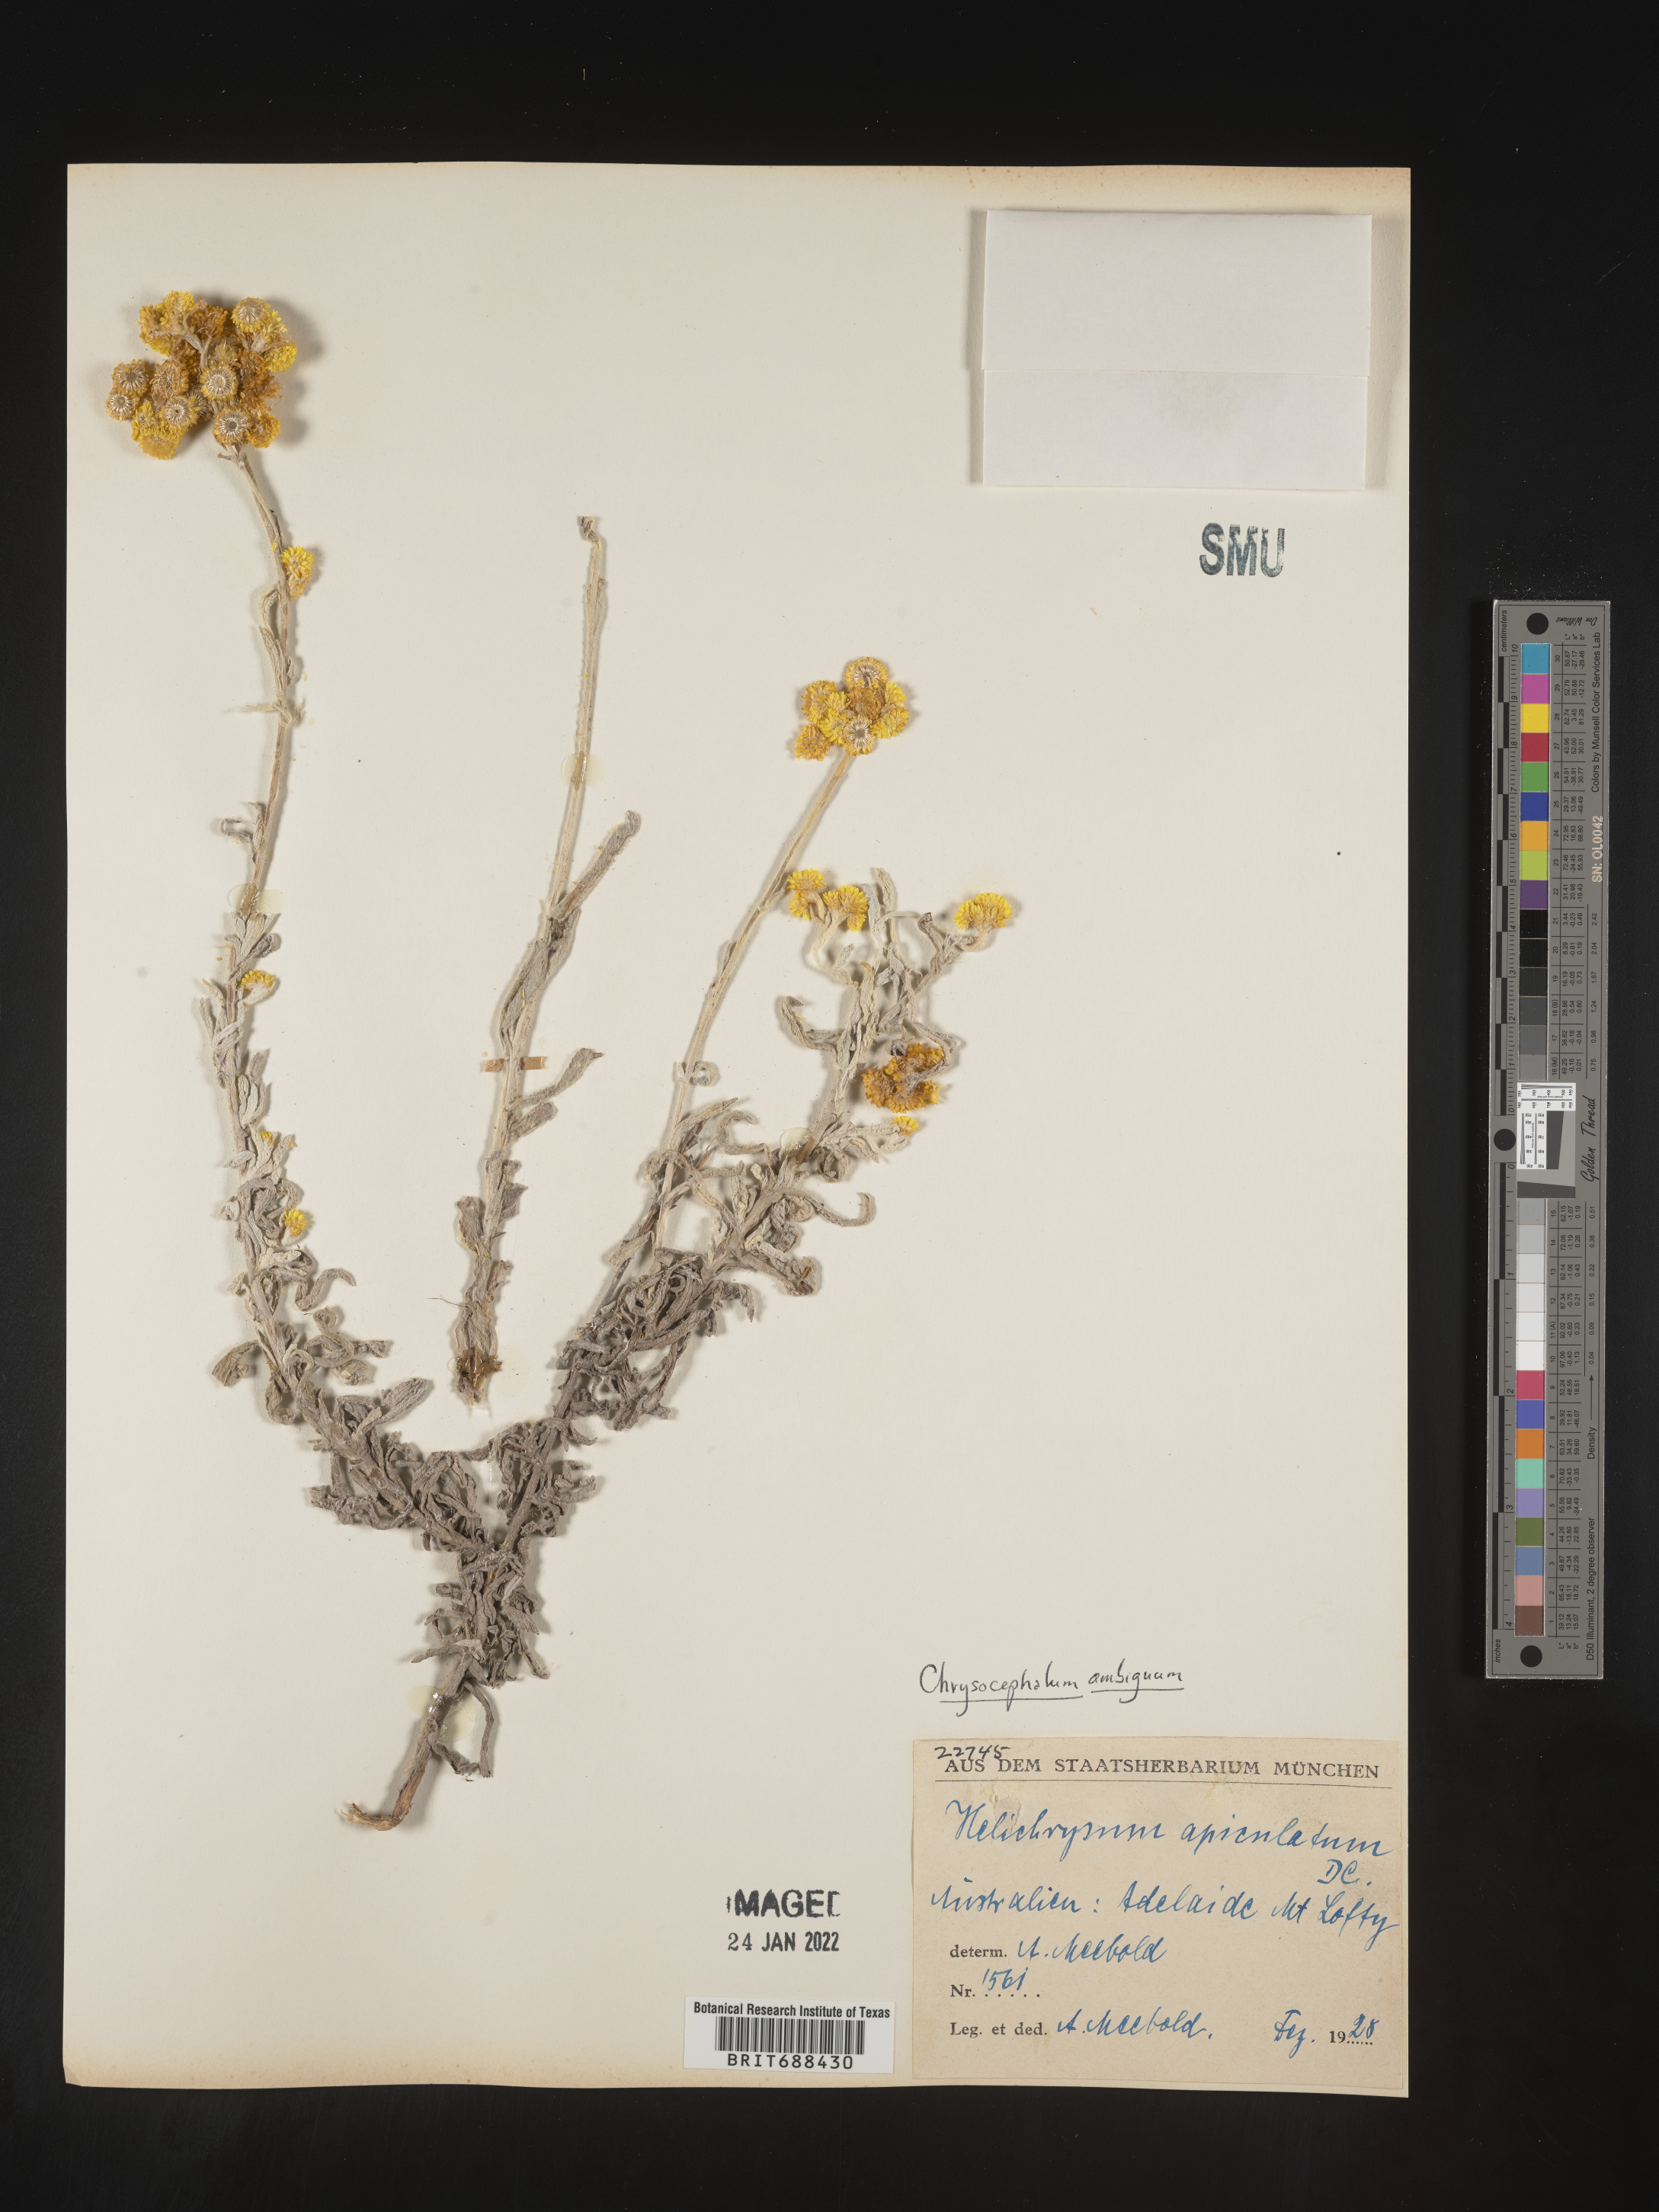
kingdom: Plantae
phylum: Tracheophyta
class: Magnoliopsida
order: Asterales
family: Asteraceae
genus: Chrysocephalum
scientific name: Chrysocephalum
